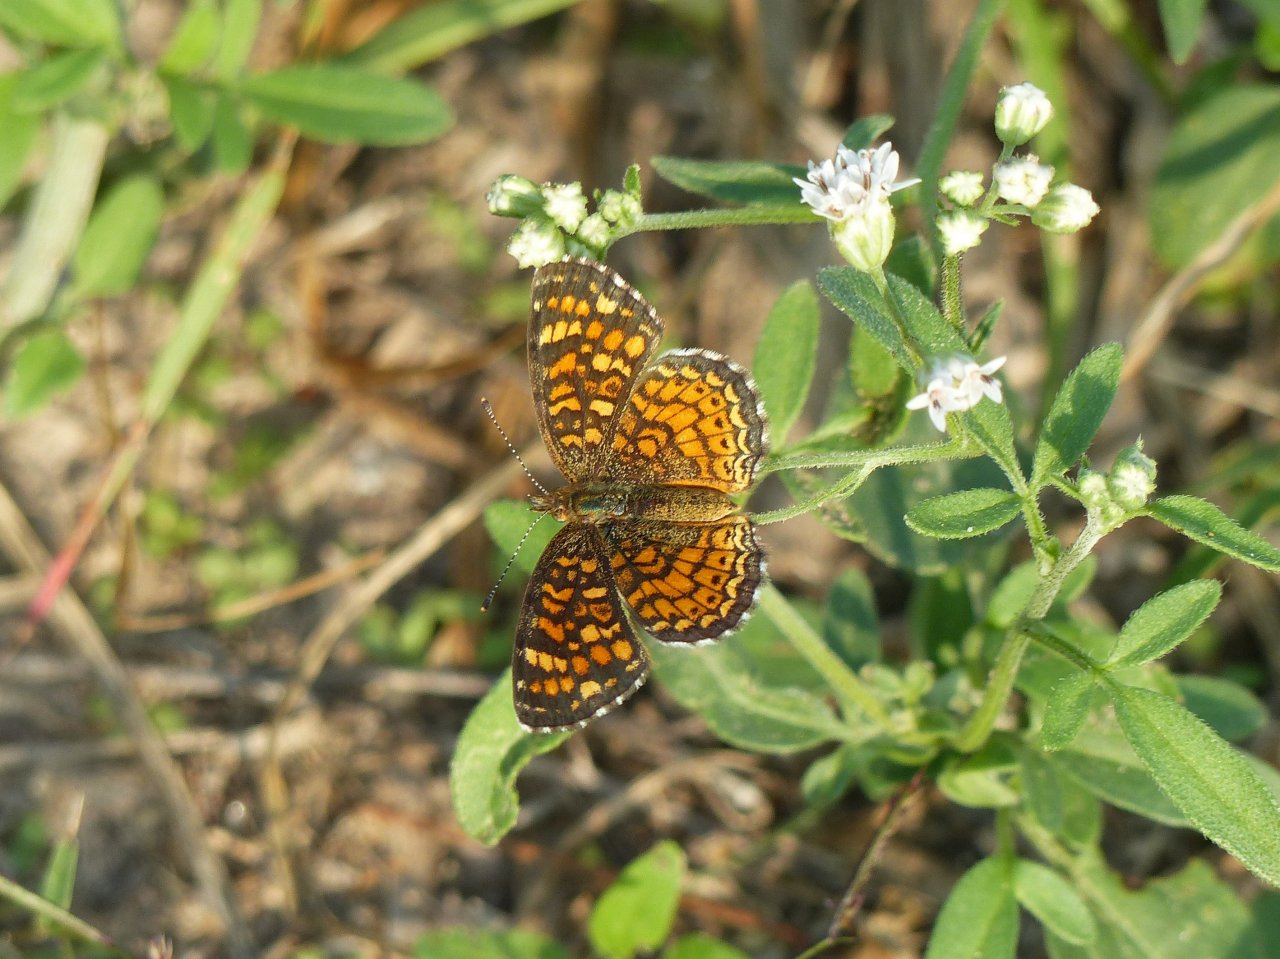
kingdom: Animalia
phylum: Arthropoda
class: Insecta
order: Lepidoptera
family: Nymphalidae
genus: Phyciodes
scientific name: Phyciodes vesta
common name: Vesta Crescent
